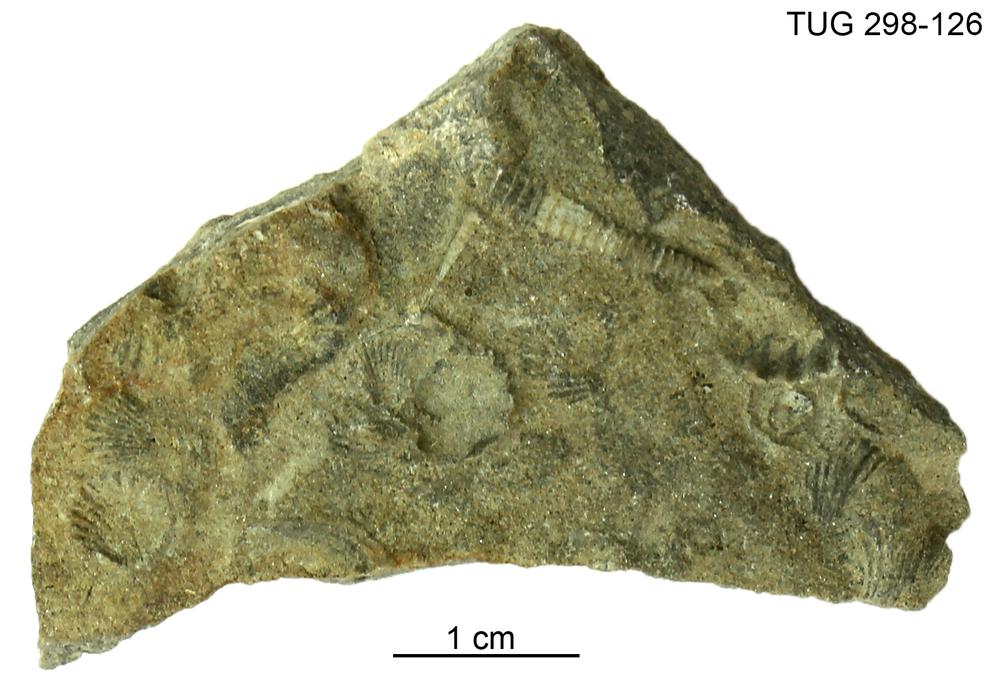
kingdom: Animalia
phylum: Mollusca
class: Cricoconarida
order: Tentaculitida
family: Tentaculitidae
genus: Tentaculites
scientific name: Tentaculites
